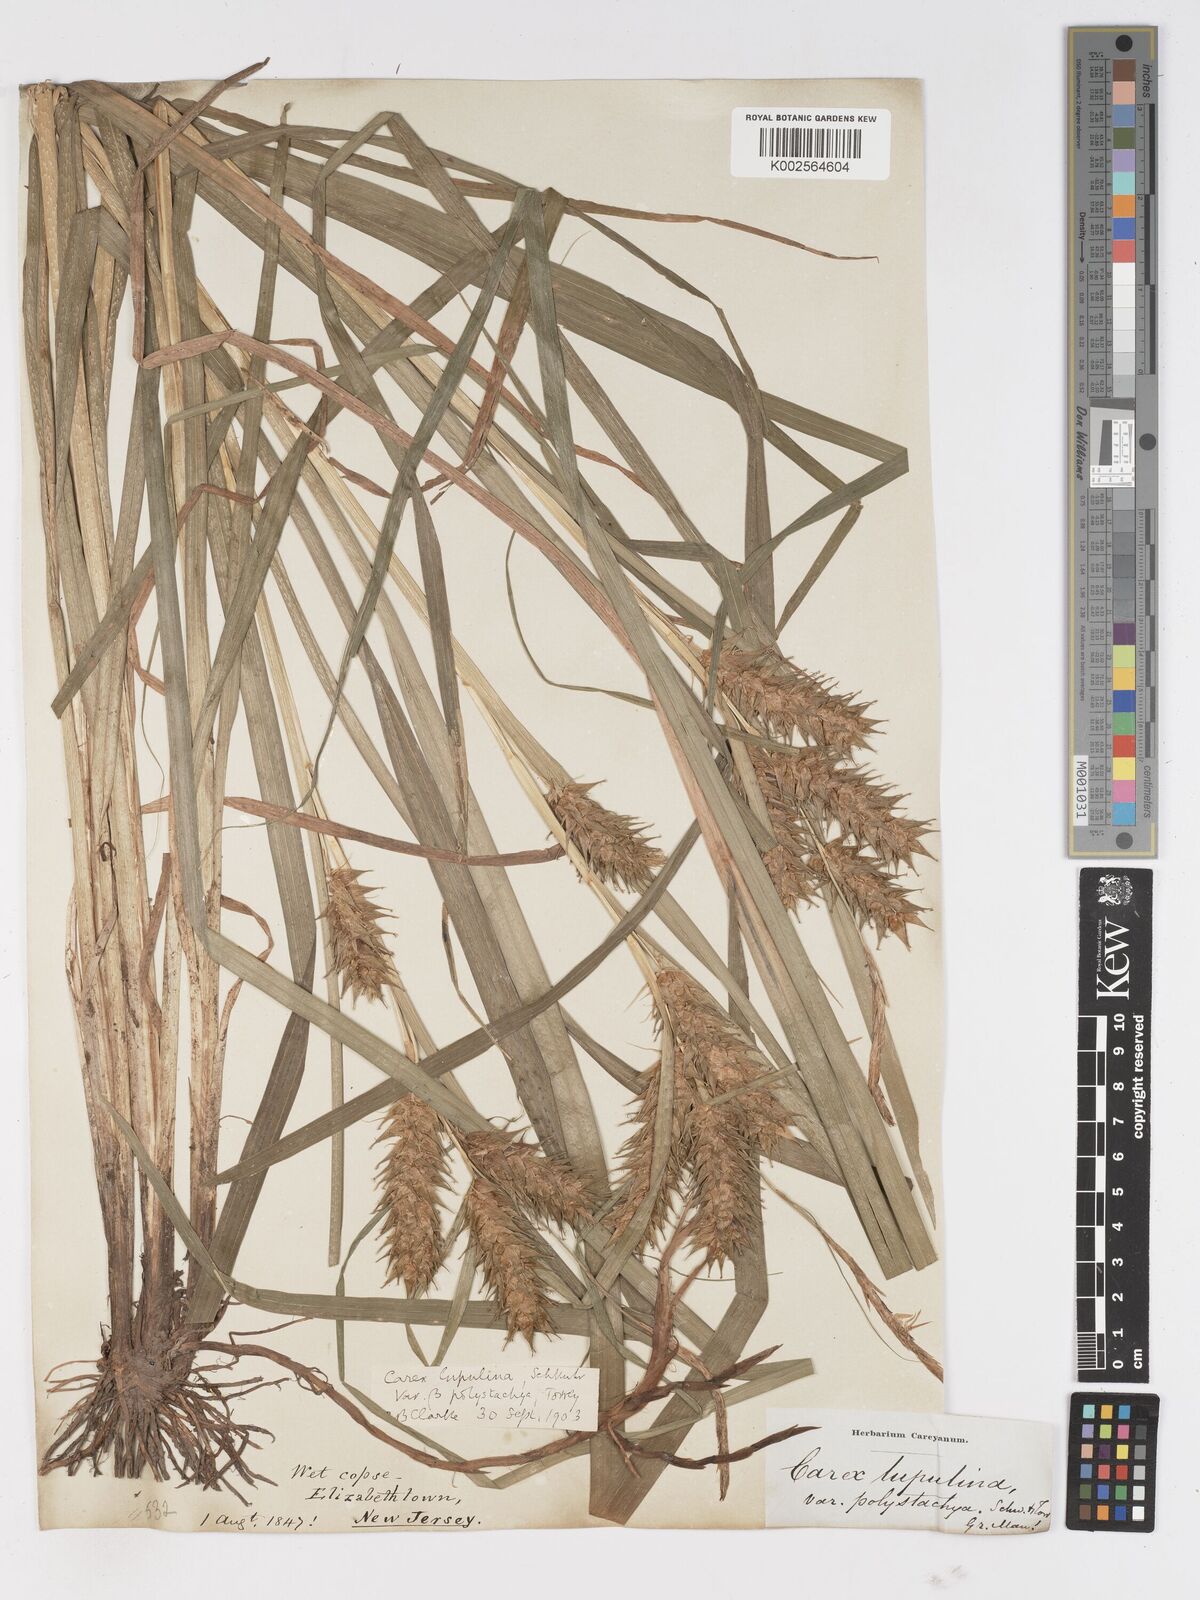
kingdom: Plantae
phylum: Tracheophyta
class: Liliopsida
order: Poales
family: Cyperaceae
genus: Carex
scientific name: Carex lupuliformis
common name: False hop sedge
